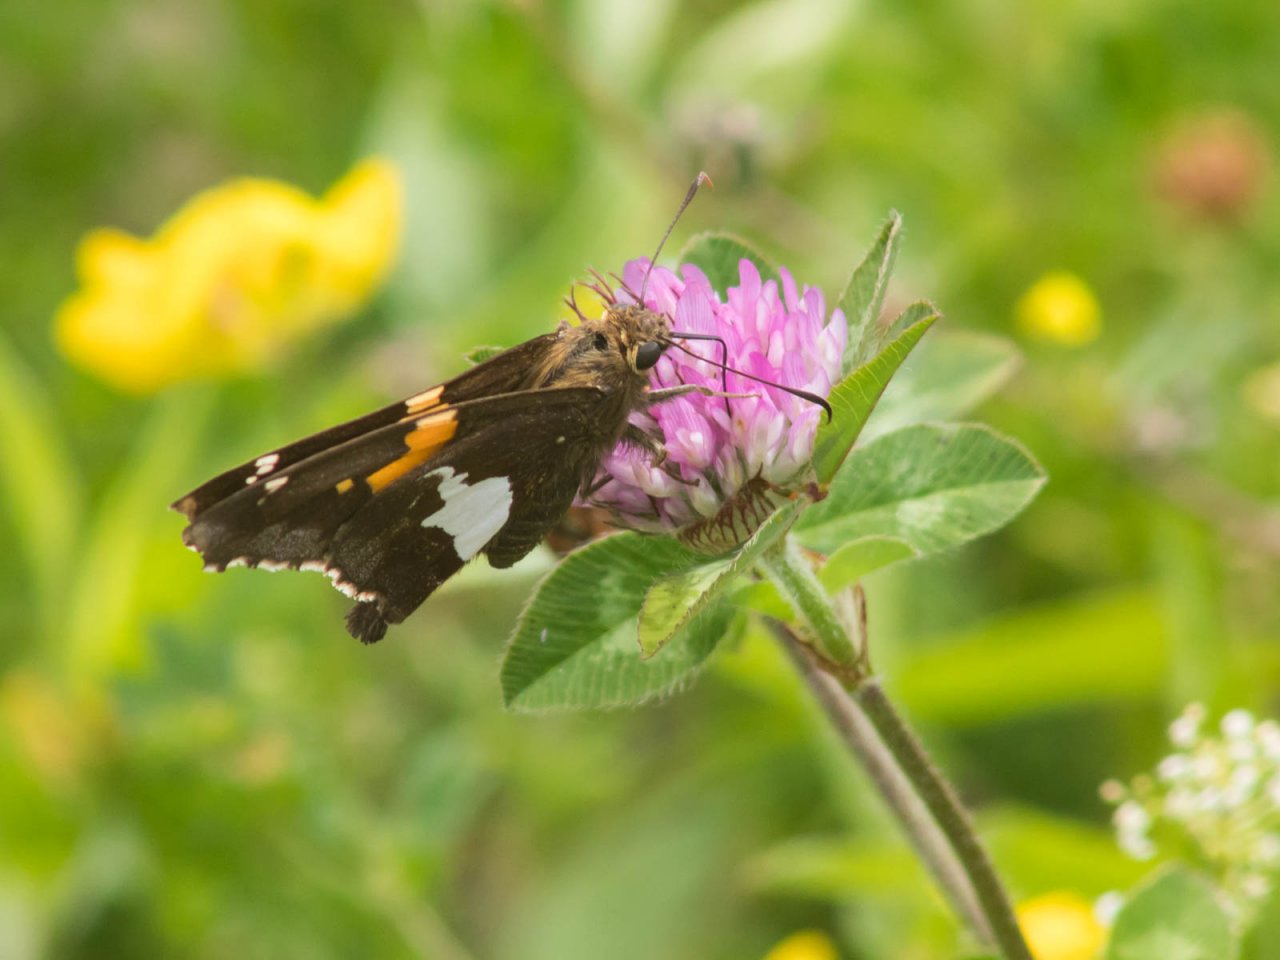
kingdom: Animalia
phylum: Arthropoda
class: Insecta
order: Lepidoptera
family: Hesperiidae
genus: Epargyreus
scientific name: Epargyreus clarus
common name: Silver-spotted Skipper
